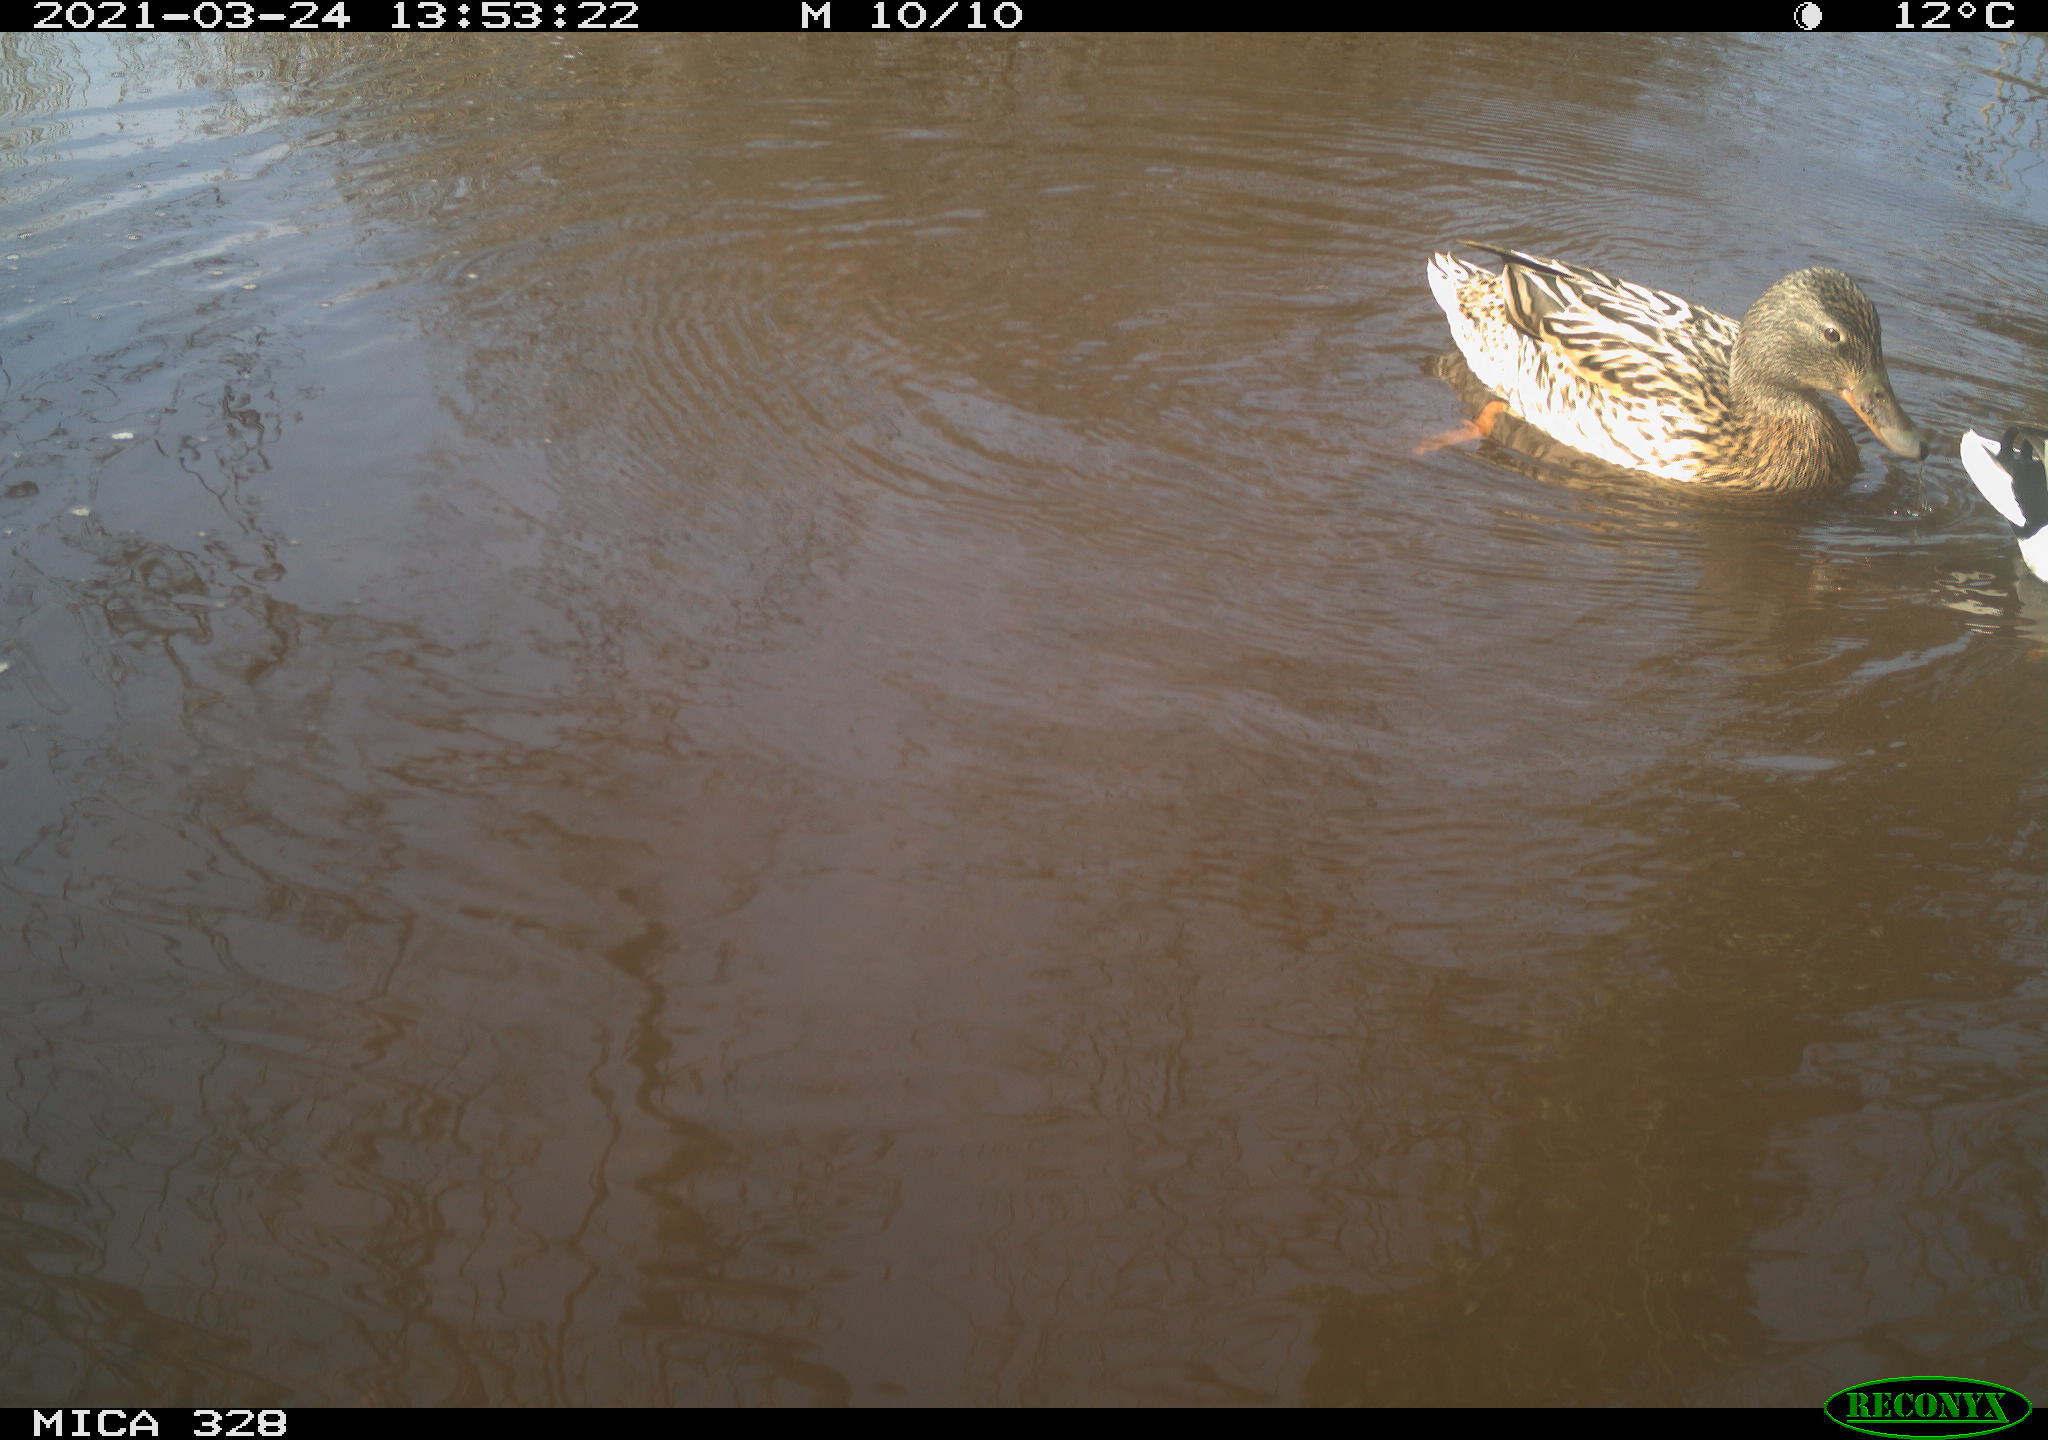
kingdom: Animalia
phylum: Chordata
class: Aves
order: Anseriformes
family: Anatidae
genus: Anas
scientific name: Anas platyrhynchos
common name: Mallard
